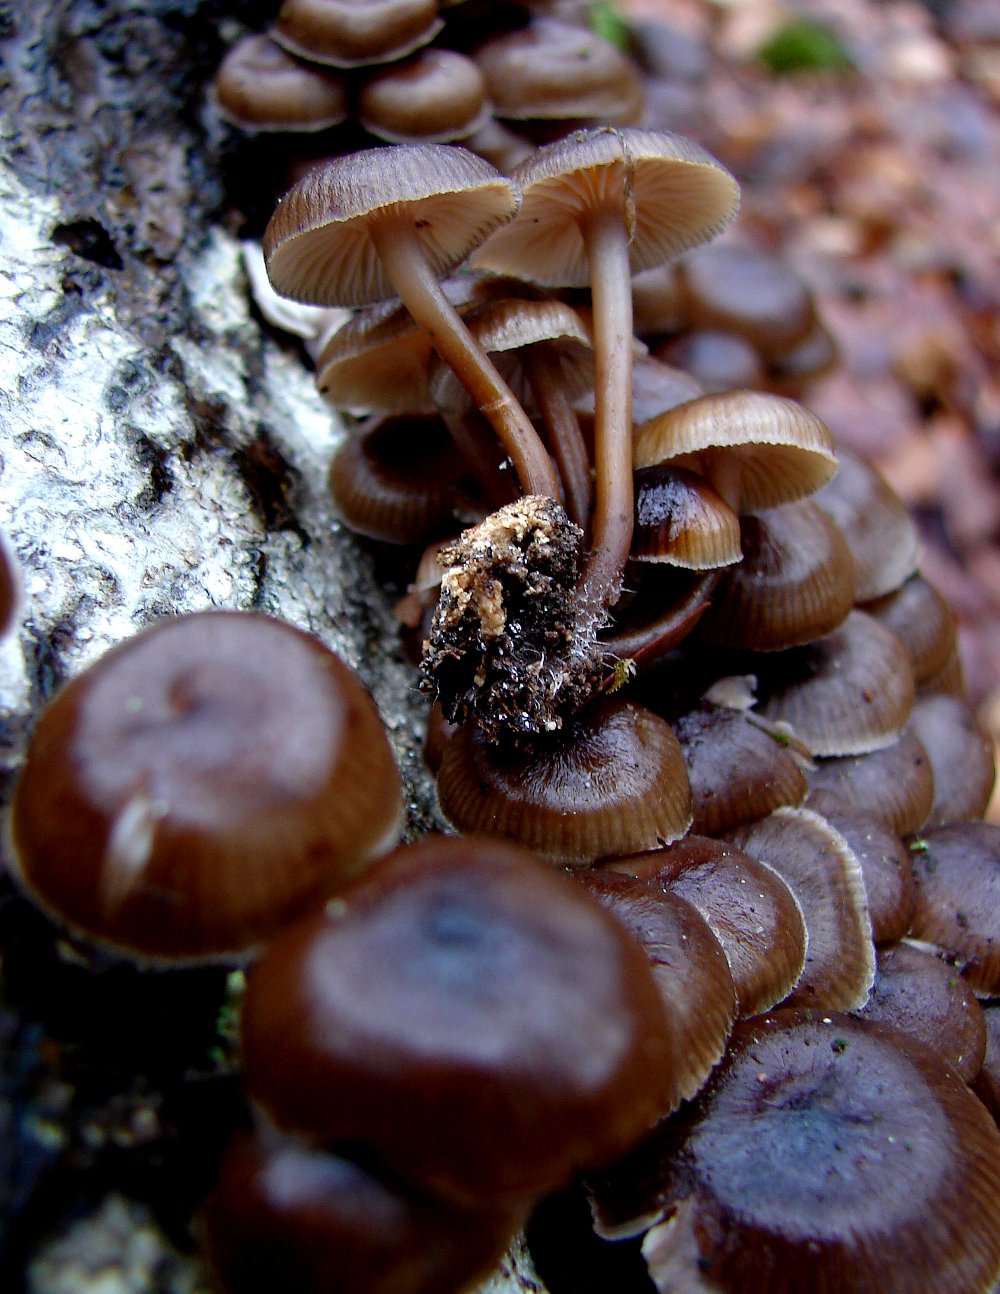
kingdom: Fungi
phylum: Basidiomycota
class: Agaricomycetes
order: Agaricales
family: Mycenaceae
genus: Mycena
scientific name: Mycena tintinnabulum
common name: vinter-huesvamp
